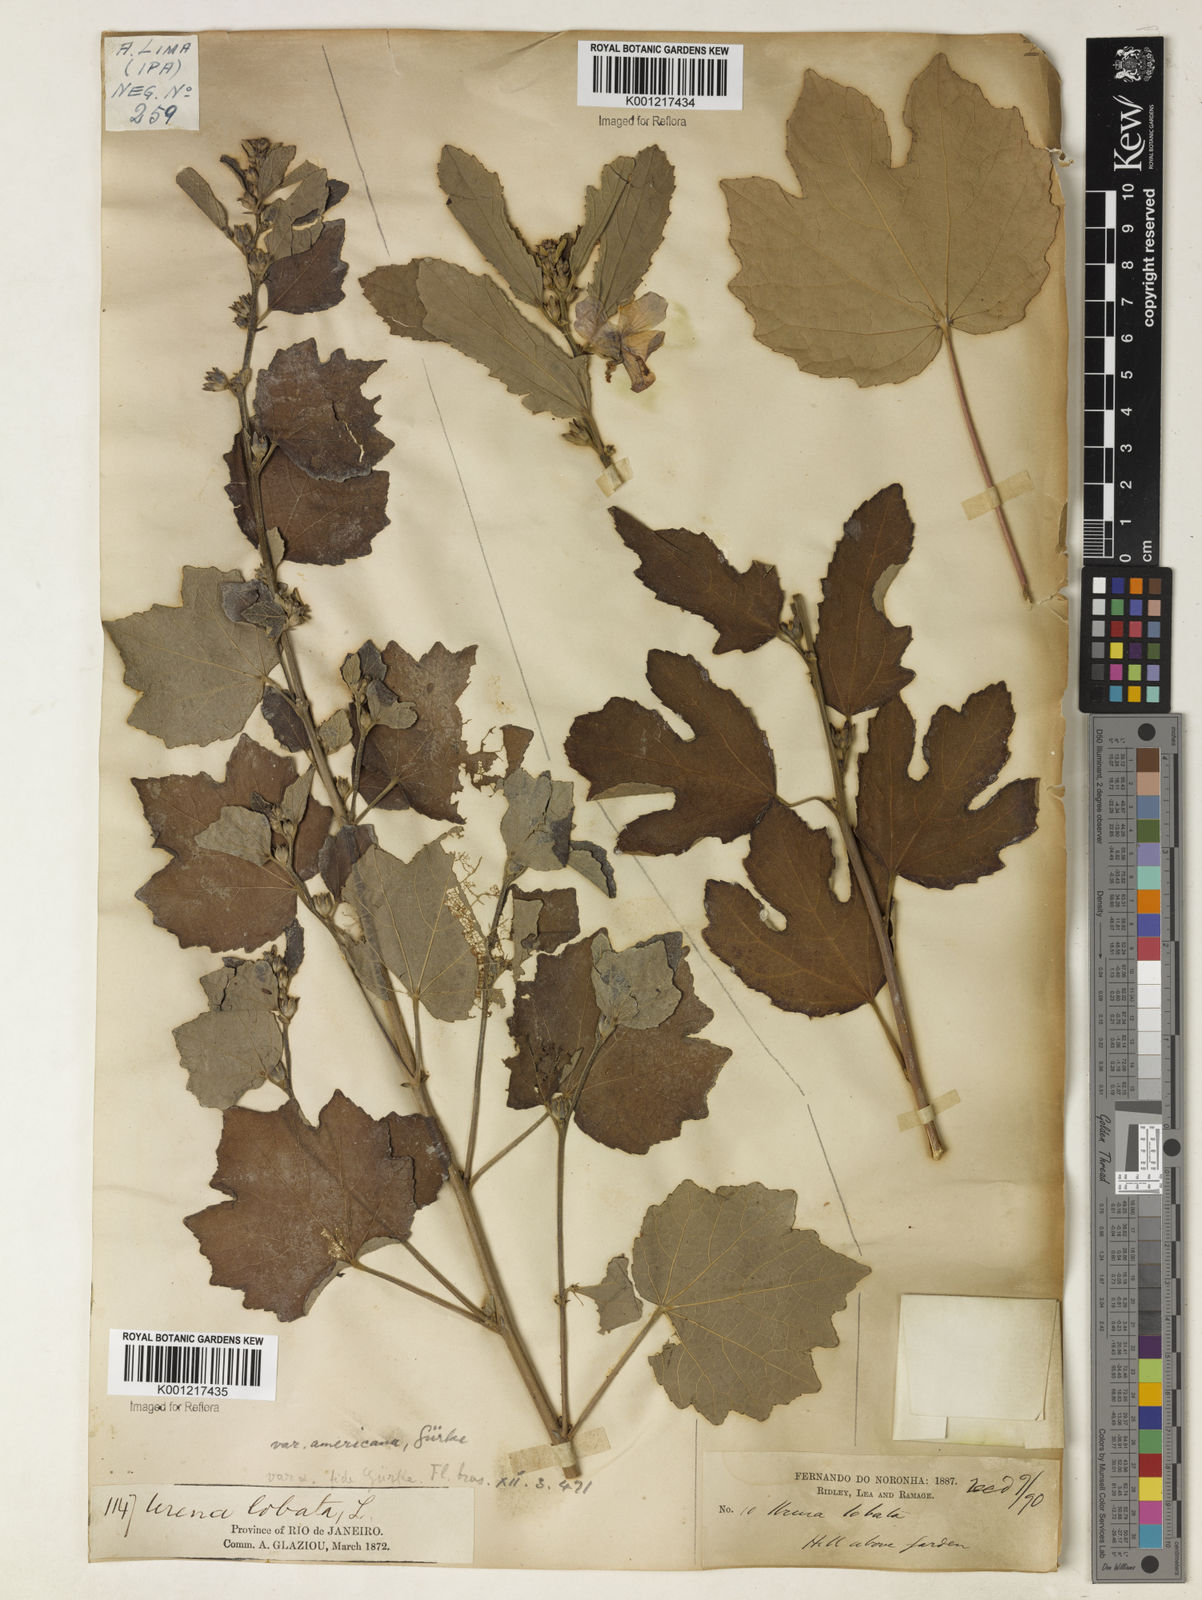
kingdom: Plantae
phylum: Tracheophyta
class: Magnoliopsida
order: Malvales
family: Malvaceae
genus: Urena
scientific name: Urena lobata
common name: Caesarweed
